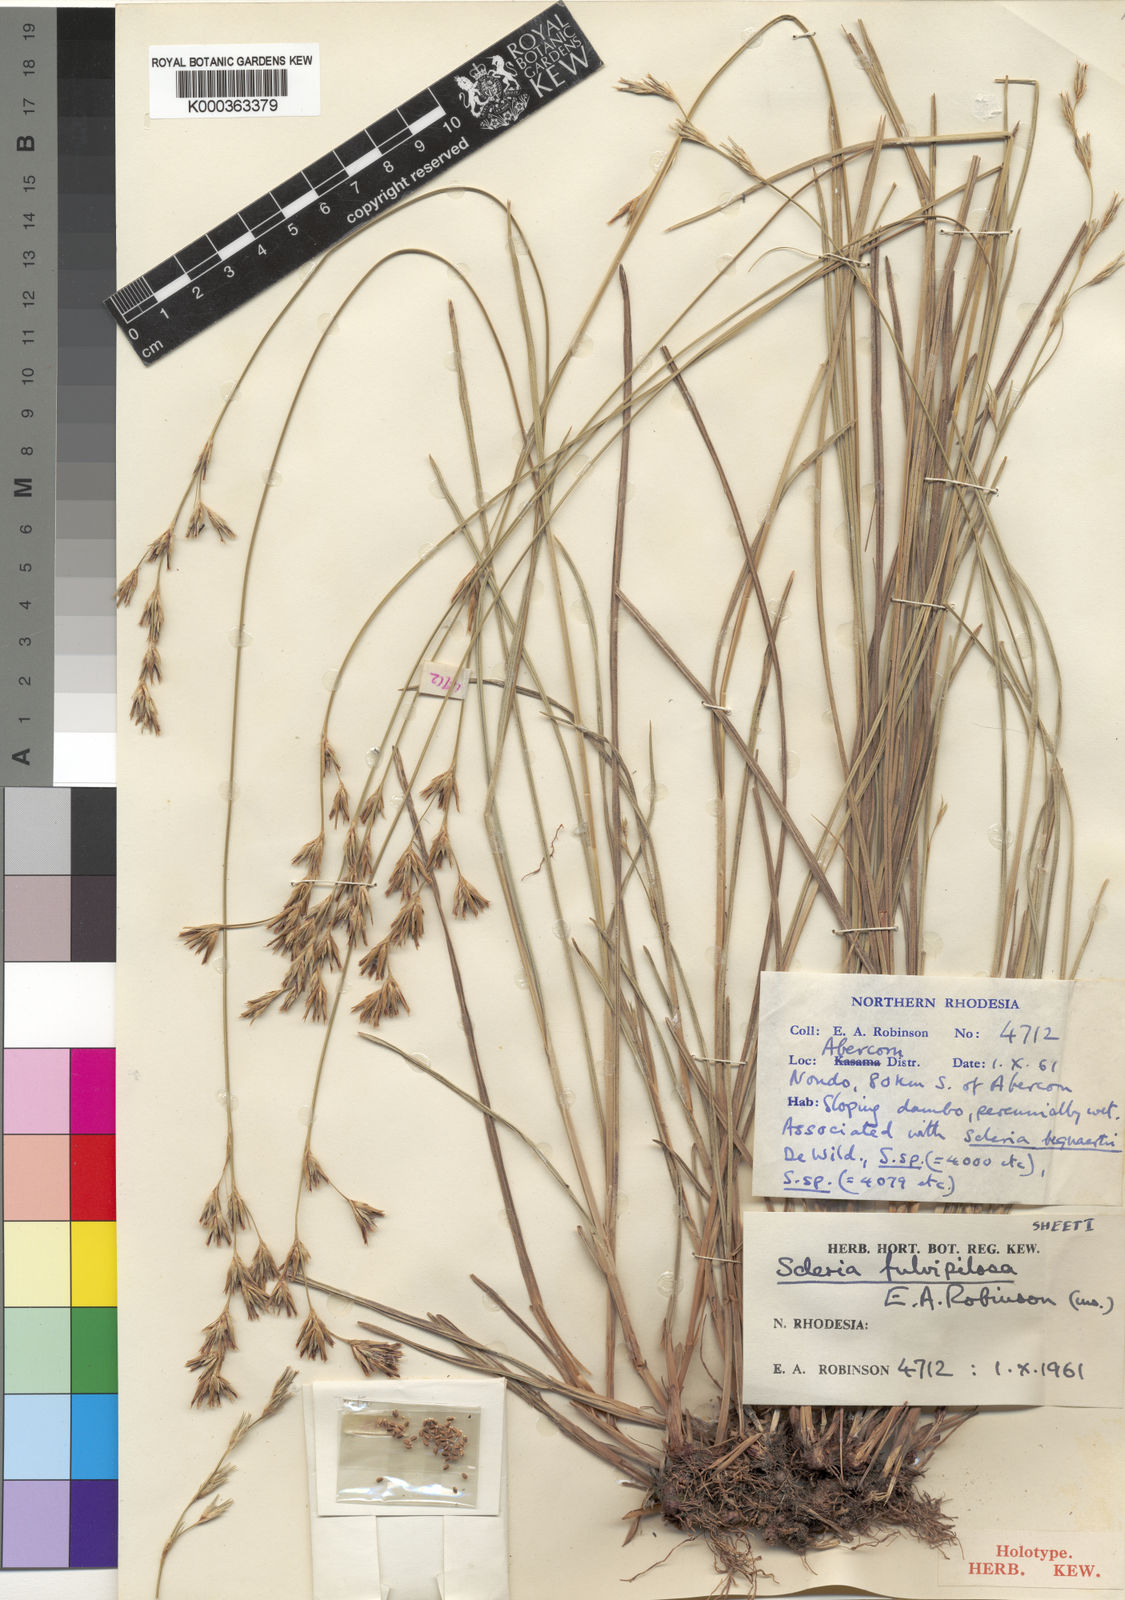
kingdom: Plantae
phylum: Tracheophyta
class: Liliopsida
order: Poales
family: Cyperaceae
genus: Scleria
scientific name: Scleria fulvipilosa
